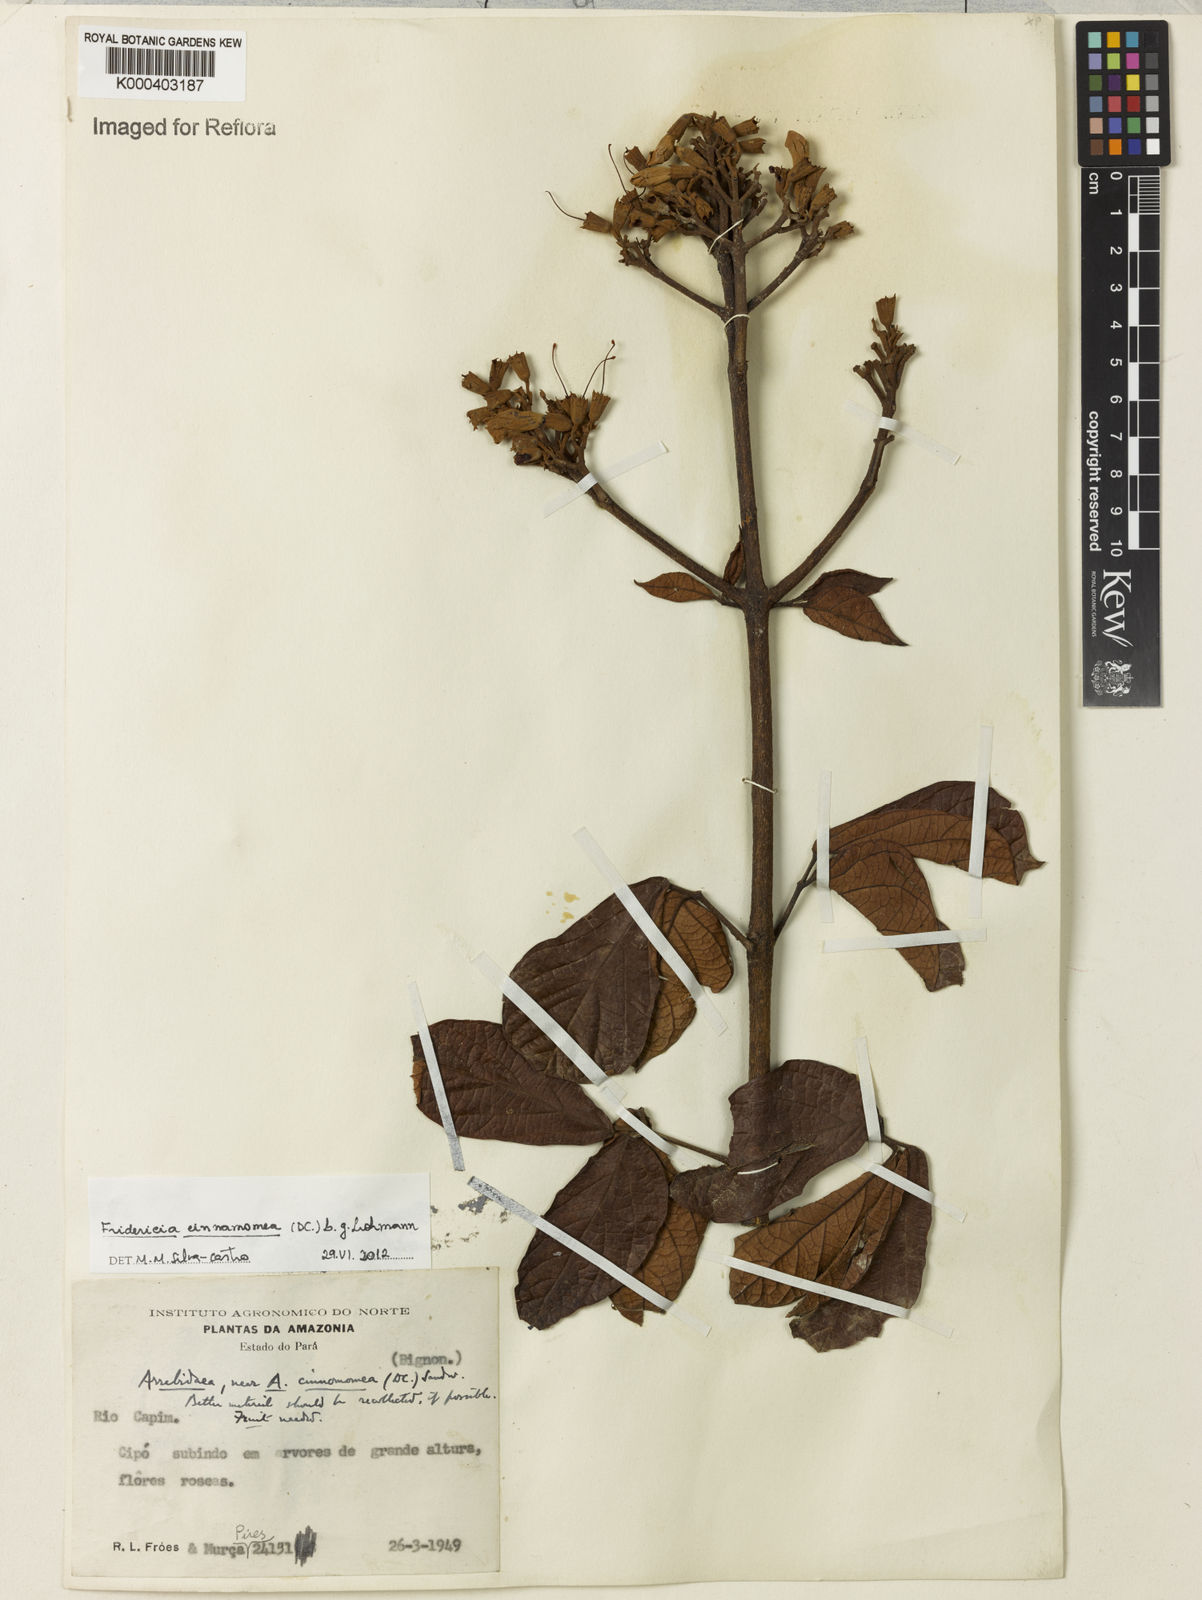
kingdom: Plantae
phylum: Tracheophyta
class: Magnoliopsida
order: Lamiales
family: Bignoniaceae
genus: Fridericia
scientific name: Fridericia cinnamomea
